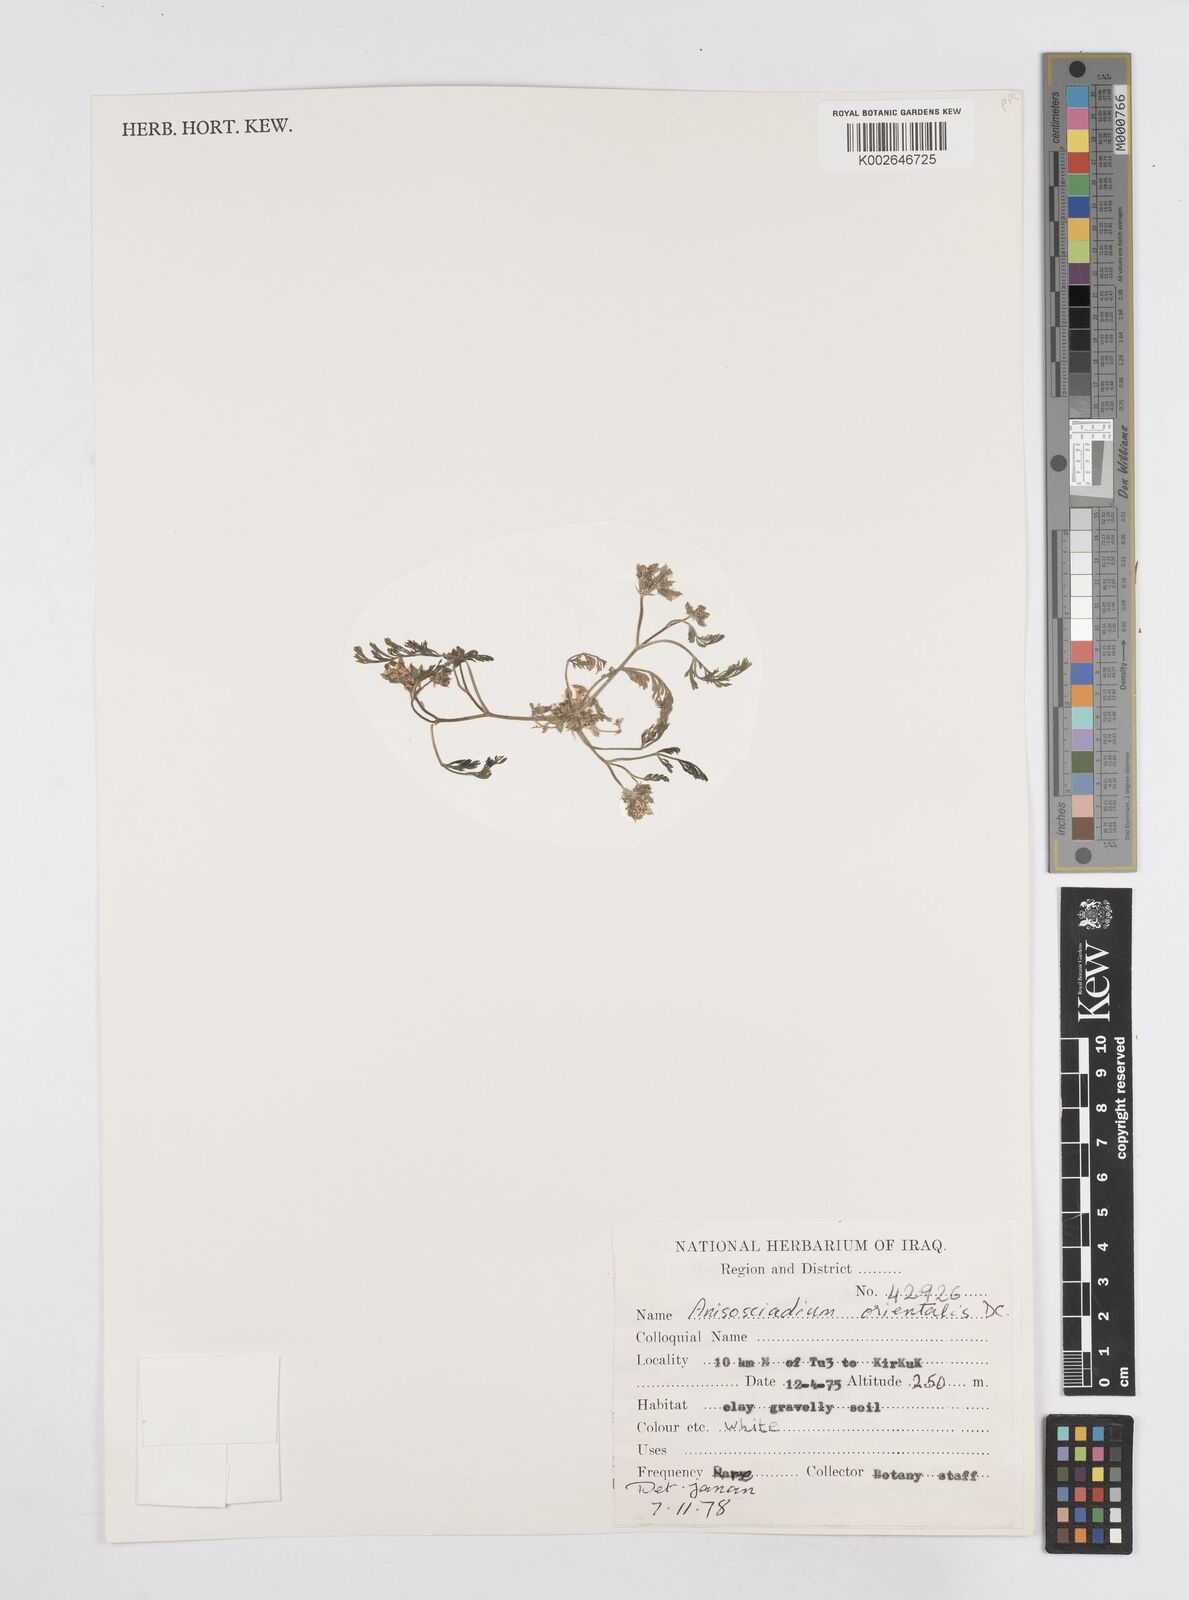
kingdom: Plantae
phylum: Tracheophyta
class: Magnoliopsida
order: Apiales
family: Apiaceae
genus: Anisosciadium
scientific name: Anisosciadium orientale
